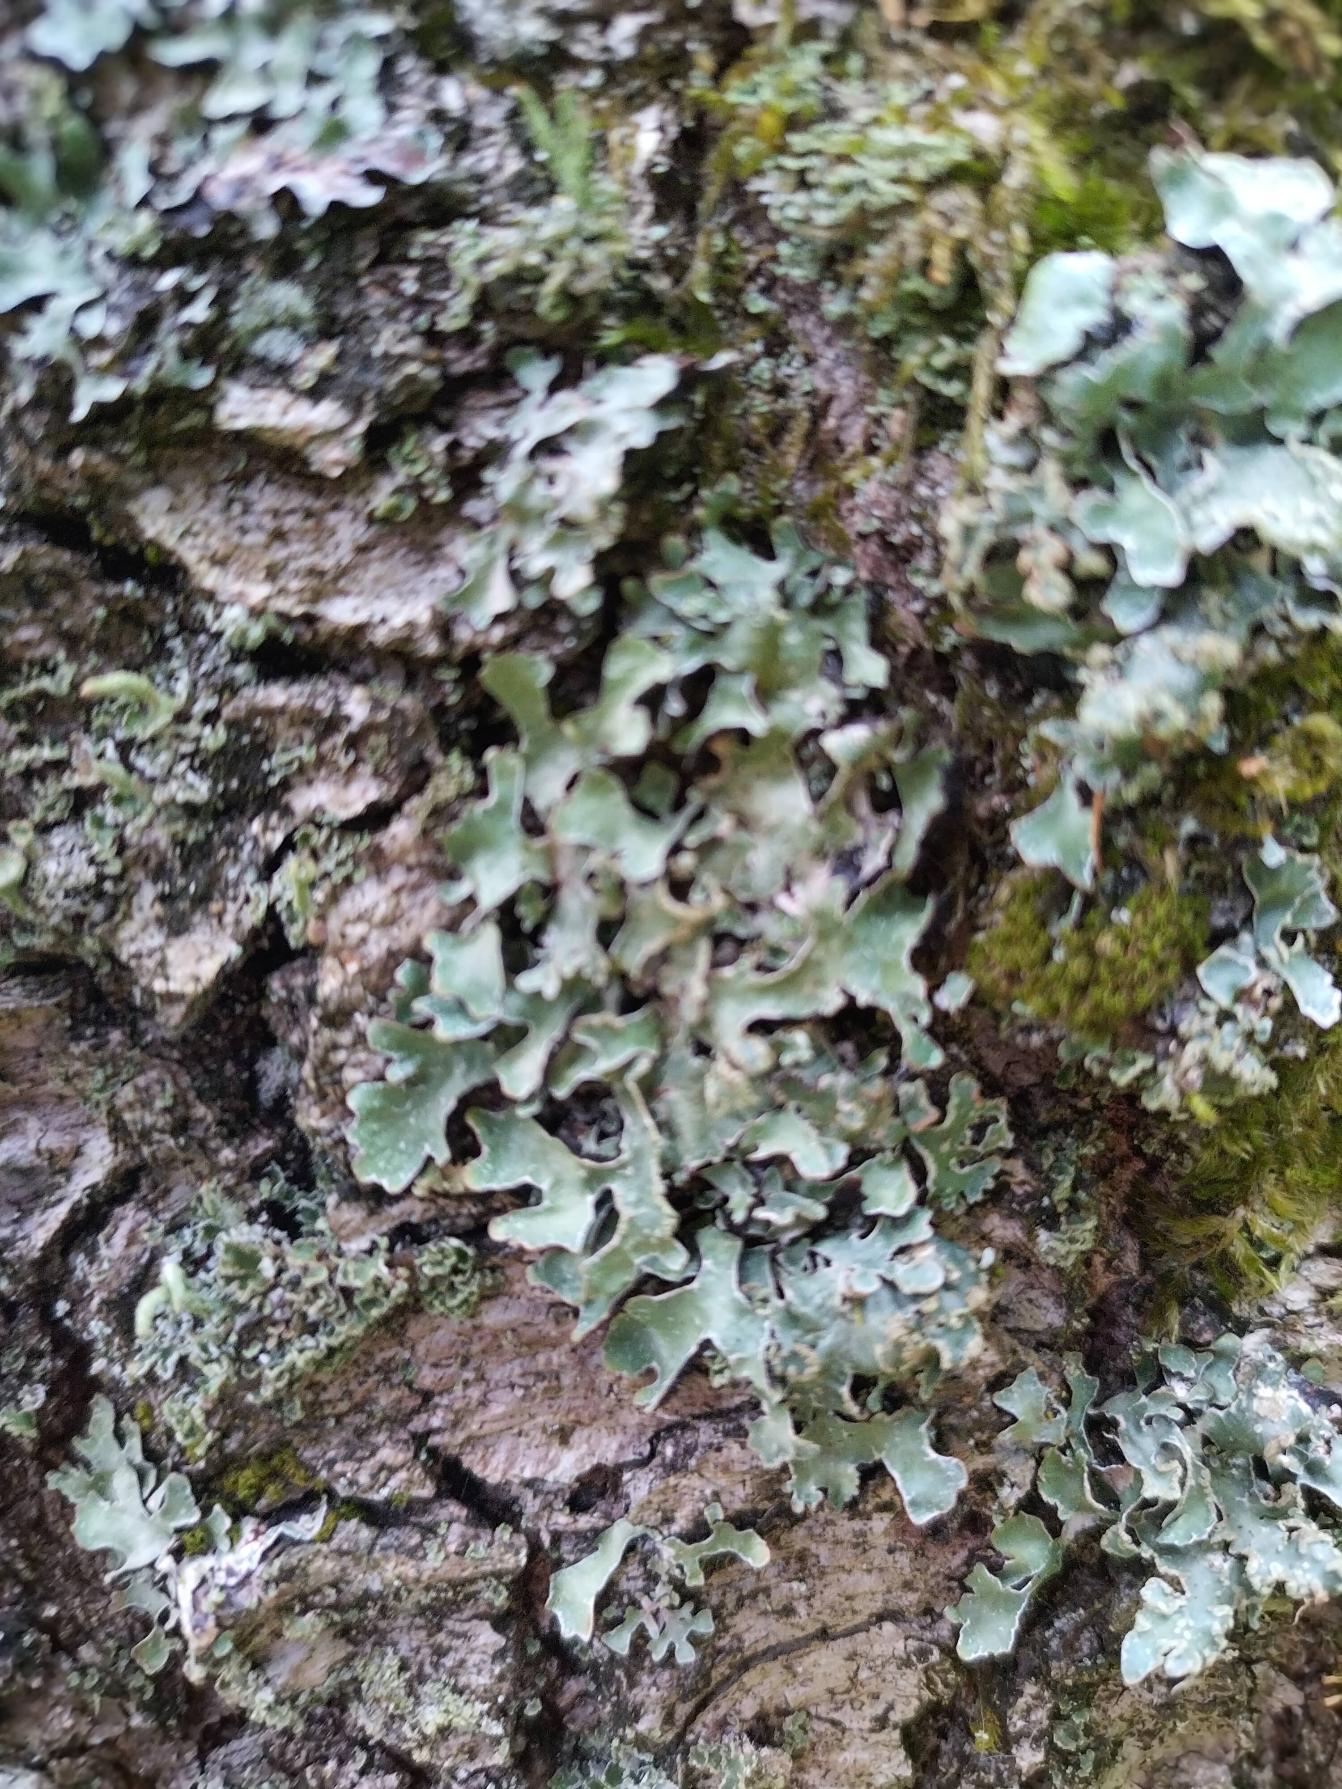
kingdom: Fungi
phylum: Ascomycota
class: Lecanoromycetes
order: Lecanorales
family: Parmeliaceae
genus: Parmelia
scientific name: Parmelia sulcata
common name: Rynket skållav
